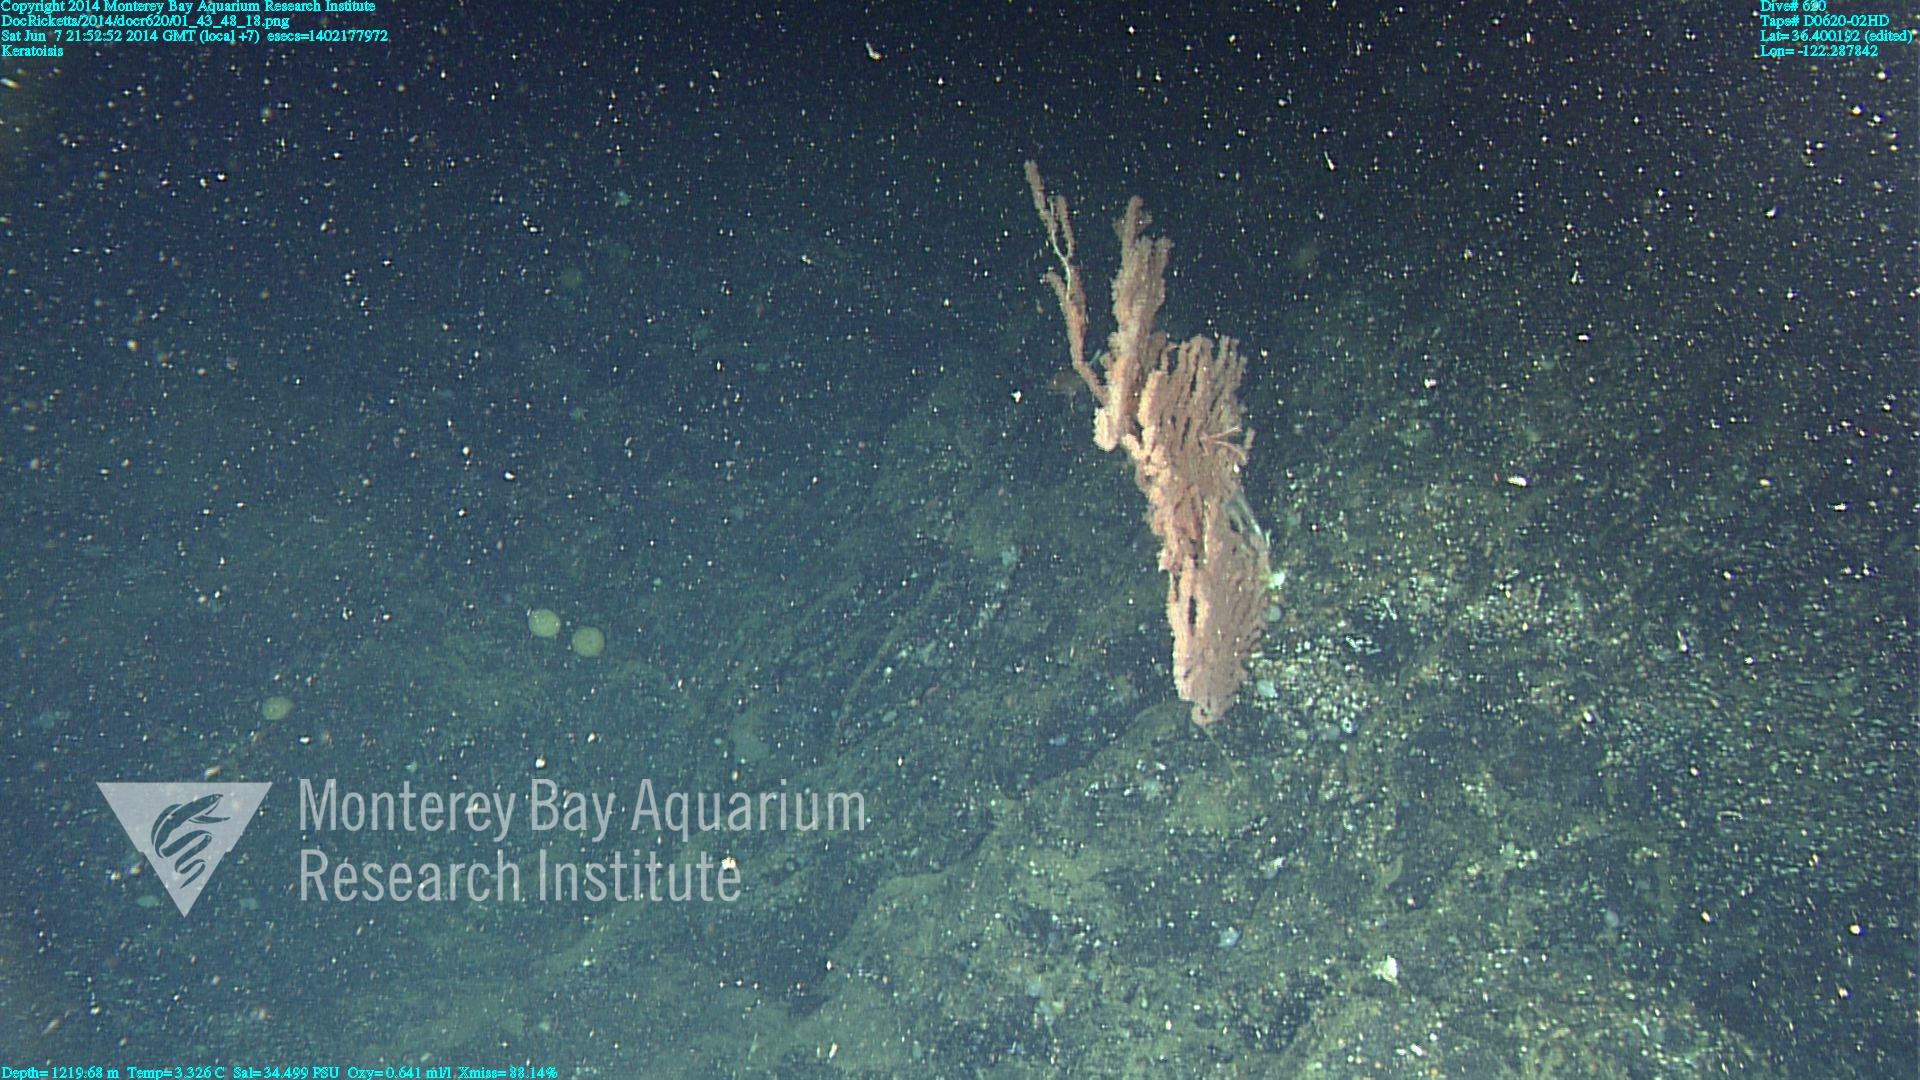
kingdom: Animalia
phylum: Cnidaria
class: Anthozoa
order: Scleralcyonacea
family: Keratoisididae
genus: Keratoisis
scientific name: Keratoisis
